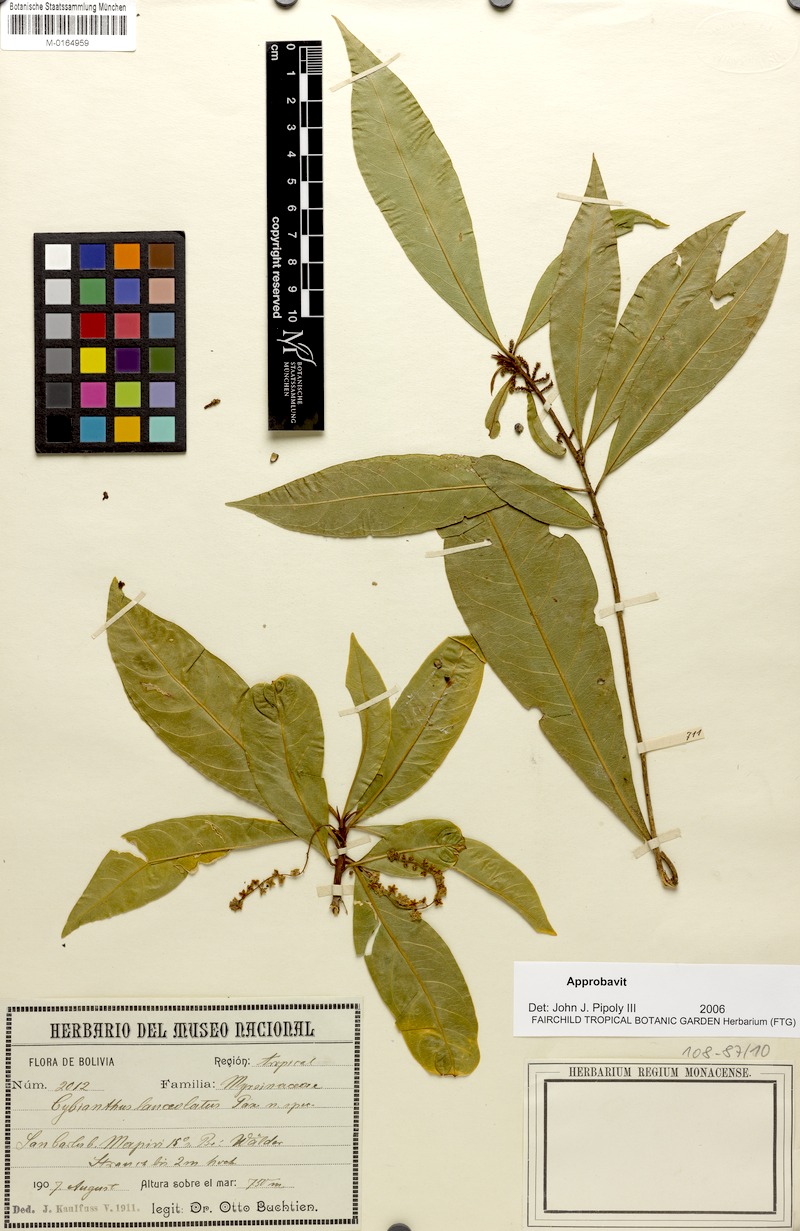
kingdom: Plantae
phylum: Tracheophyta
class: Magnoliopsida
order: Ericales
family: Primulaceae
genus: Cybianthus
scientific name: Cybianthus resinosus
